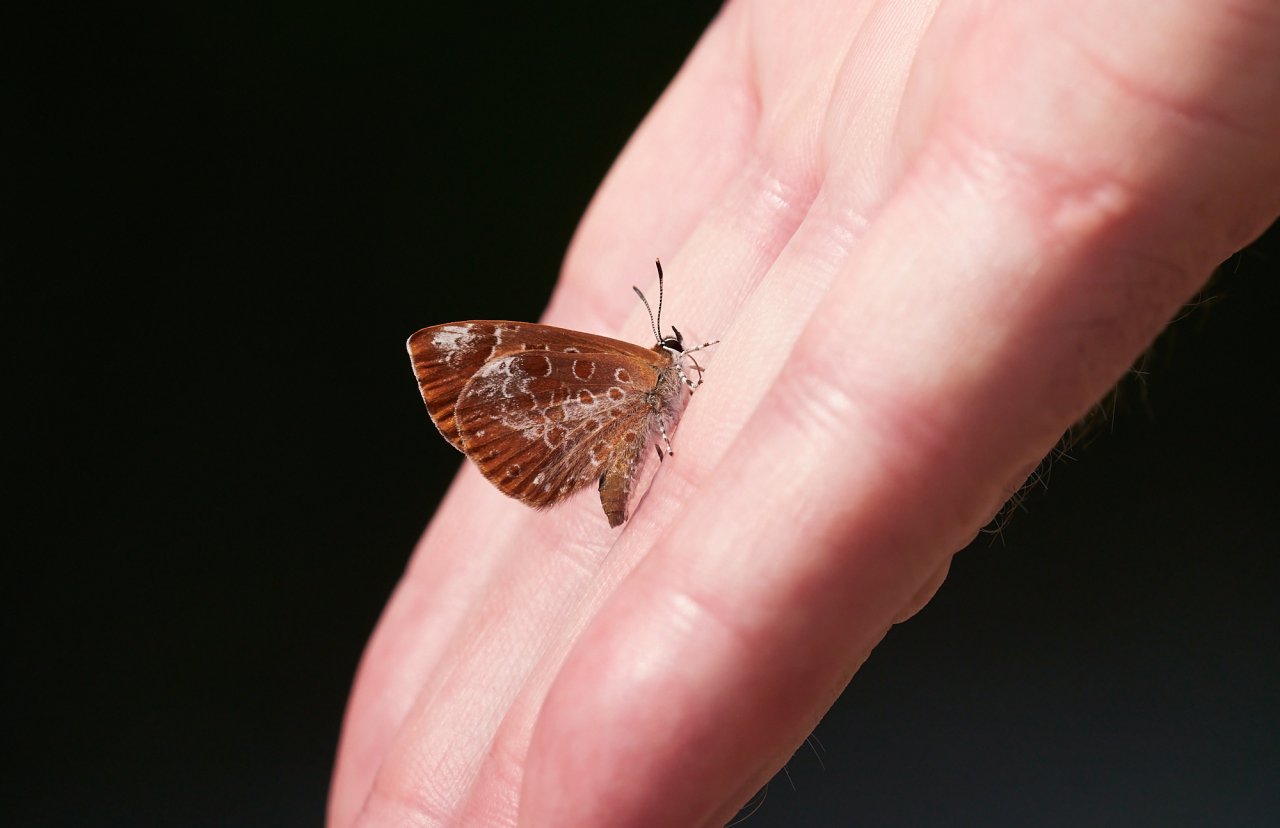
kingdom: Animalia
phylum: Arthropoda
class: Insecta
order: Lepidoptera
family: Lycaenidae
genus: Feniseca
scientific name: Feniseca tarquinius
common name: Harvester
